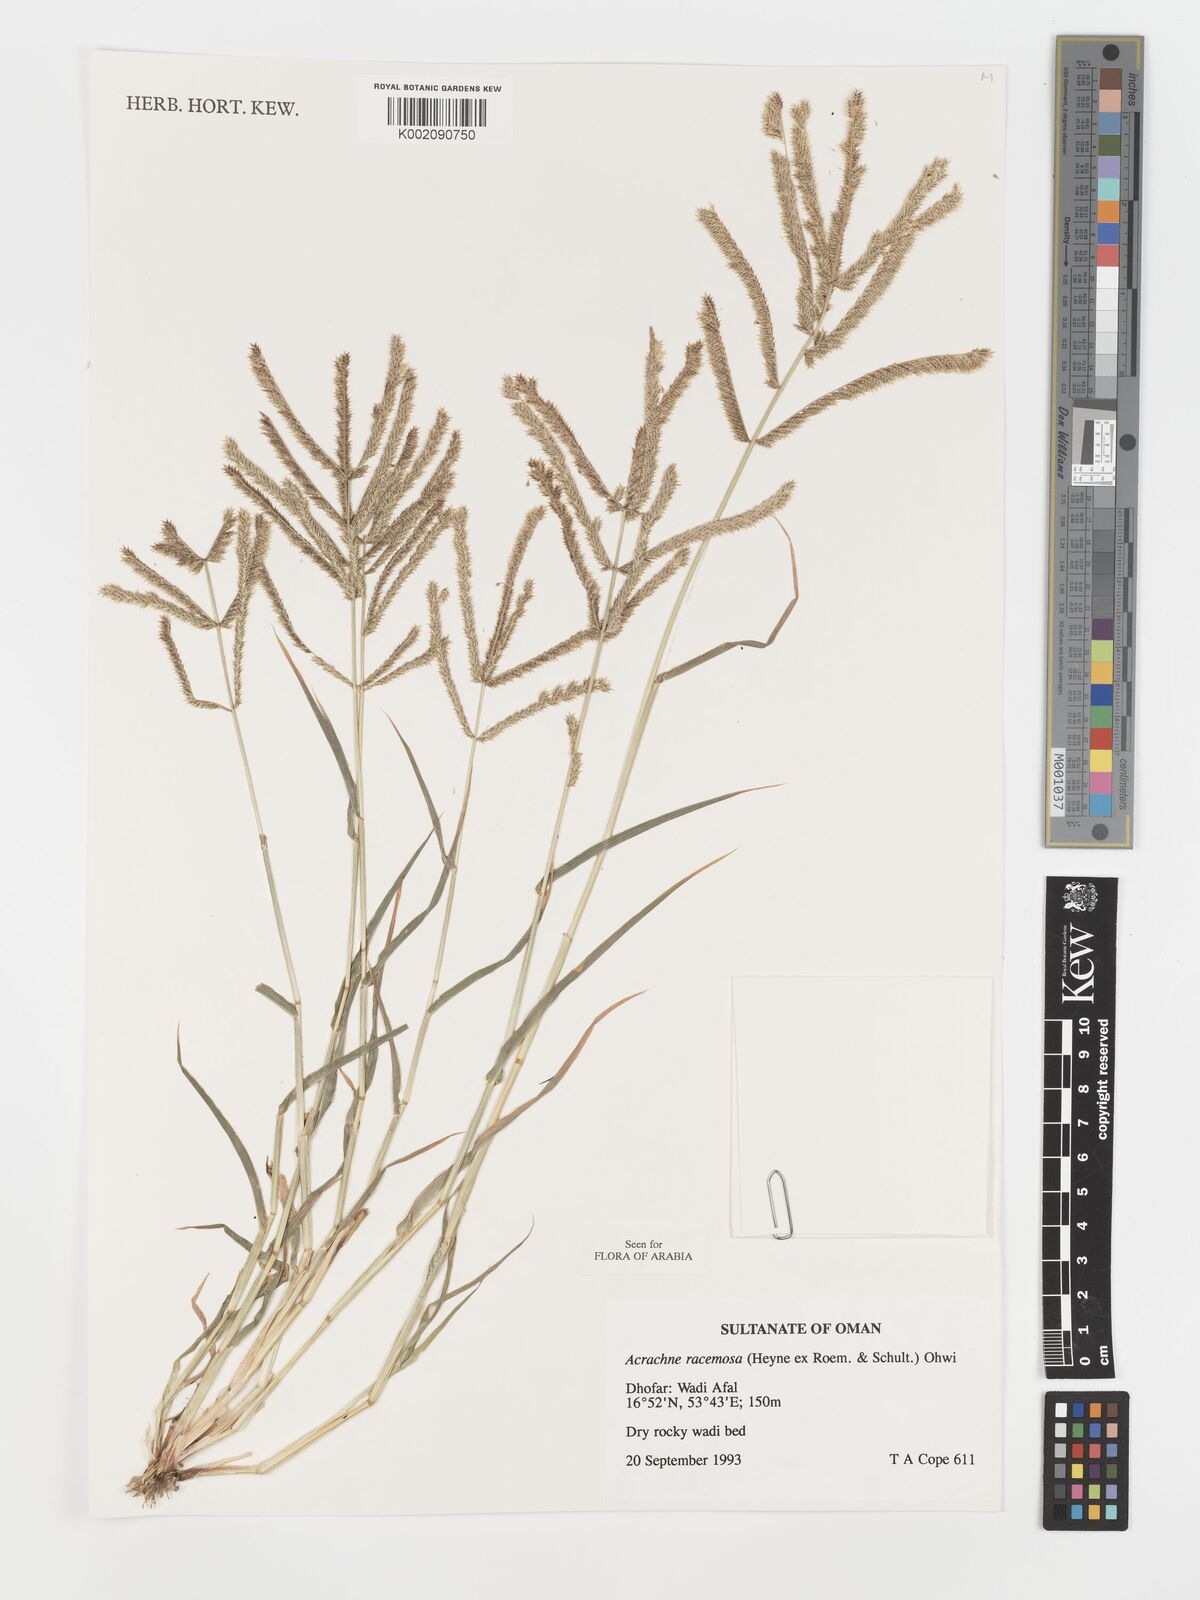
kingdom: Plantae
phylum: Tracheophyta
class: Liliopsida
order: Poales
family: Poaceae
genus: Acrachne
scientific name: Acrachne racemosa
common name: Goosegrass
